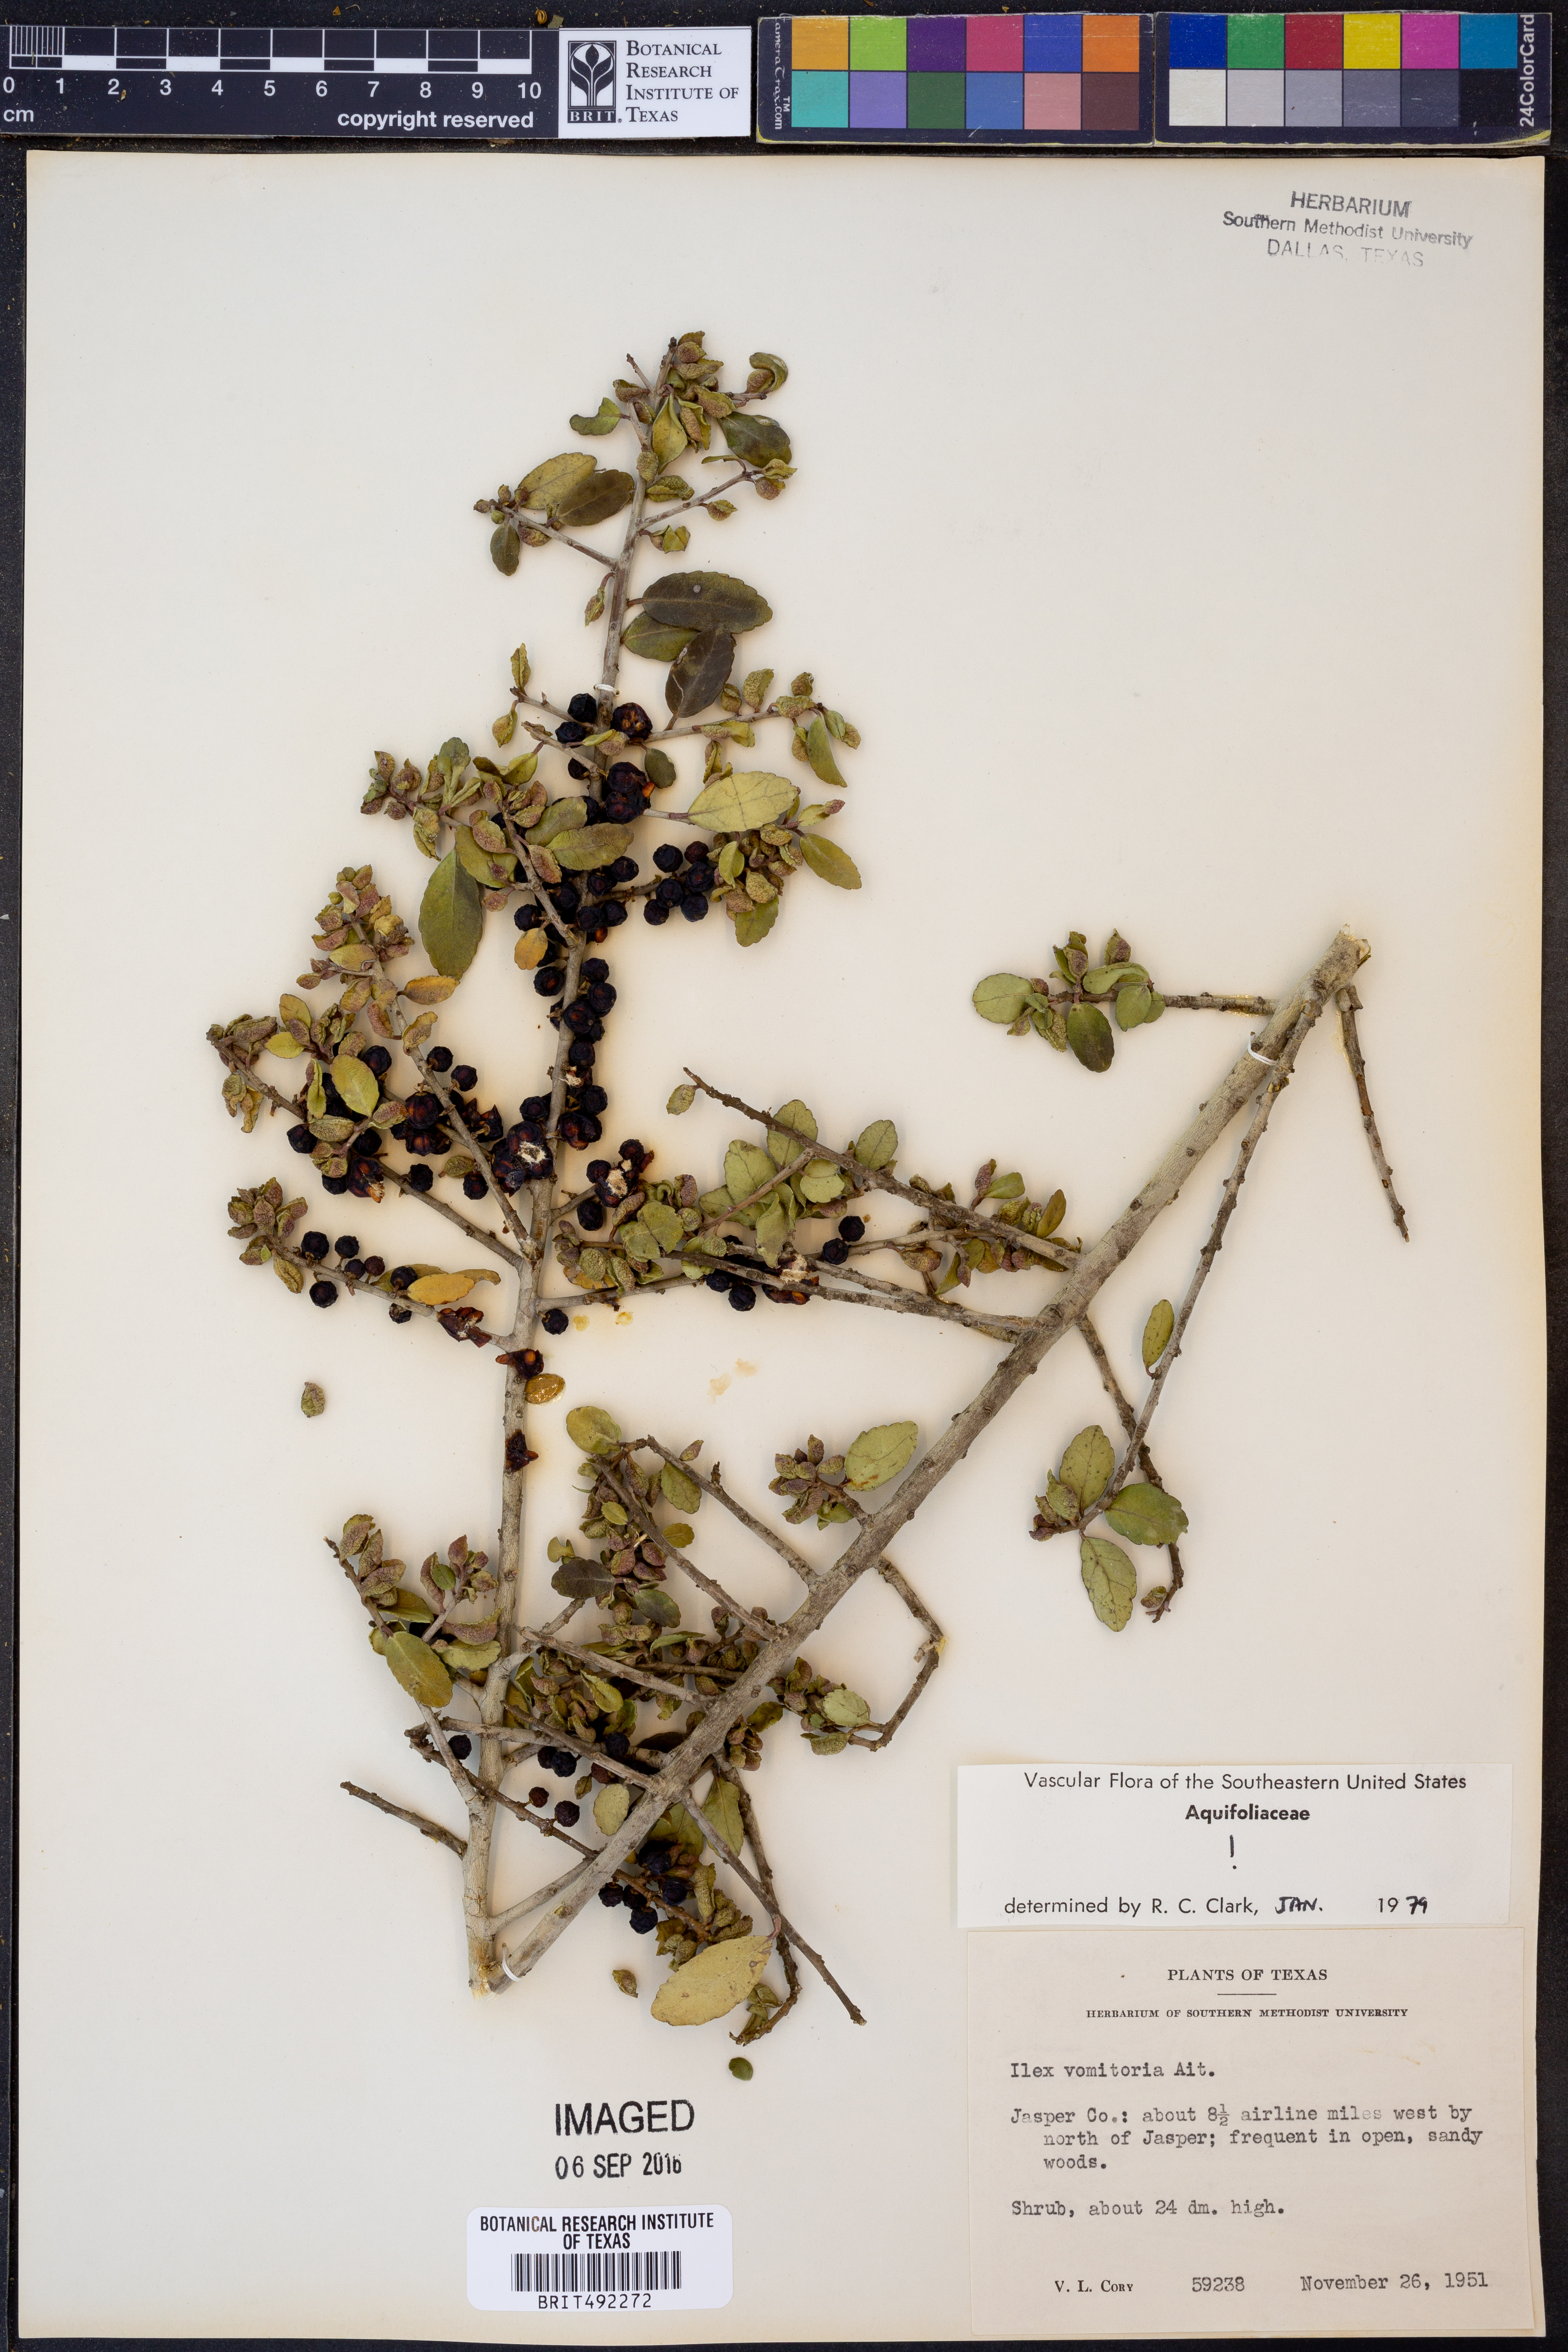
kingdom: Plantae
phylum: Tracheophyta
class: Magnoliopsida
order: Aquifoliales
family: Aquifoliaceae
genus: Ilex
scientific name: Ilex vomitoria
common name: Yaupon holly
